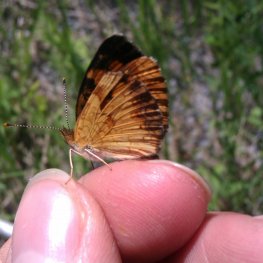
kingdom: Animalia
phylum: Arthropoda
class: Insecta
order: Lepidoptera
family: Nymphalidae
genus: Phyciodes
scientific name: Phyciodes tharos
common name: Northern Crescent
